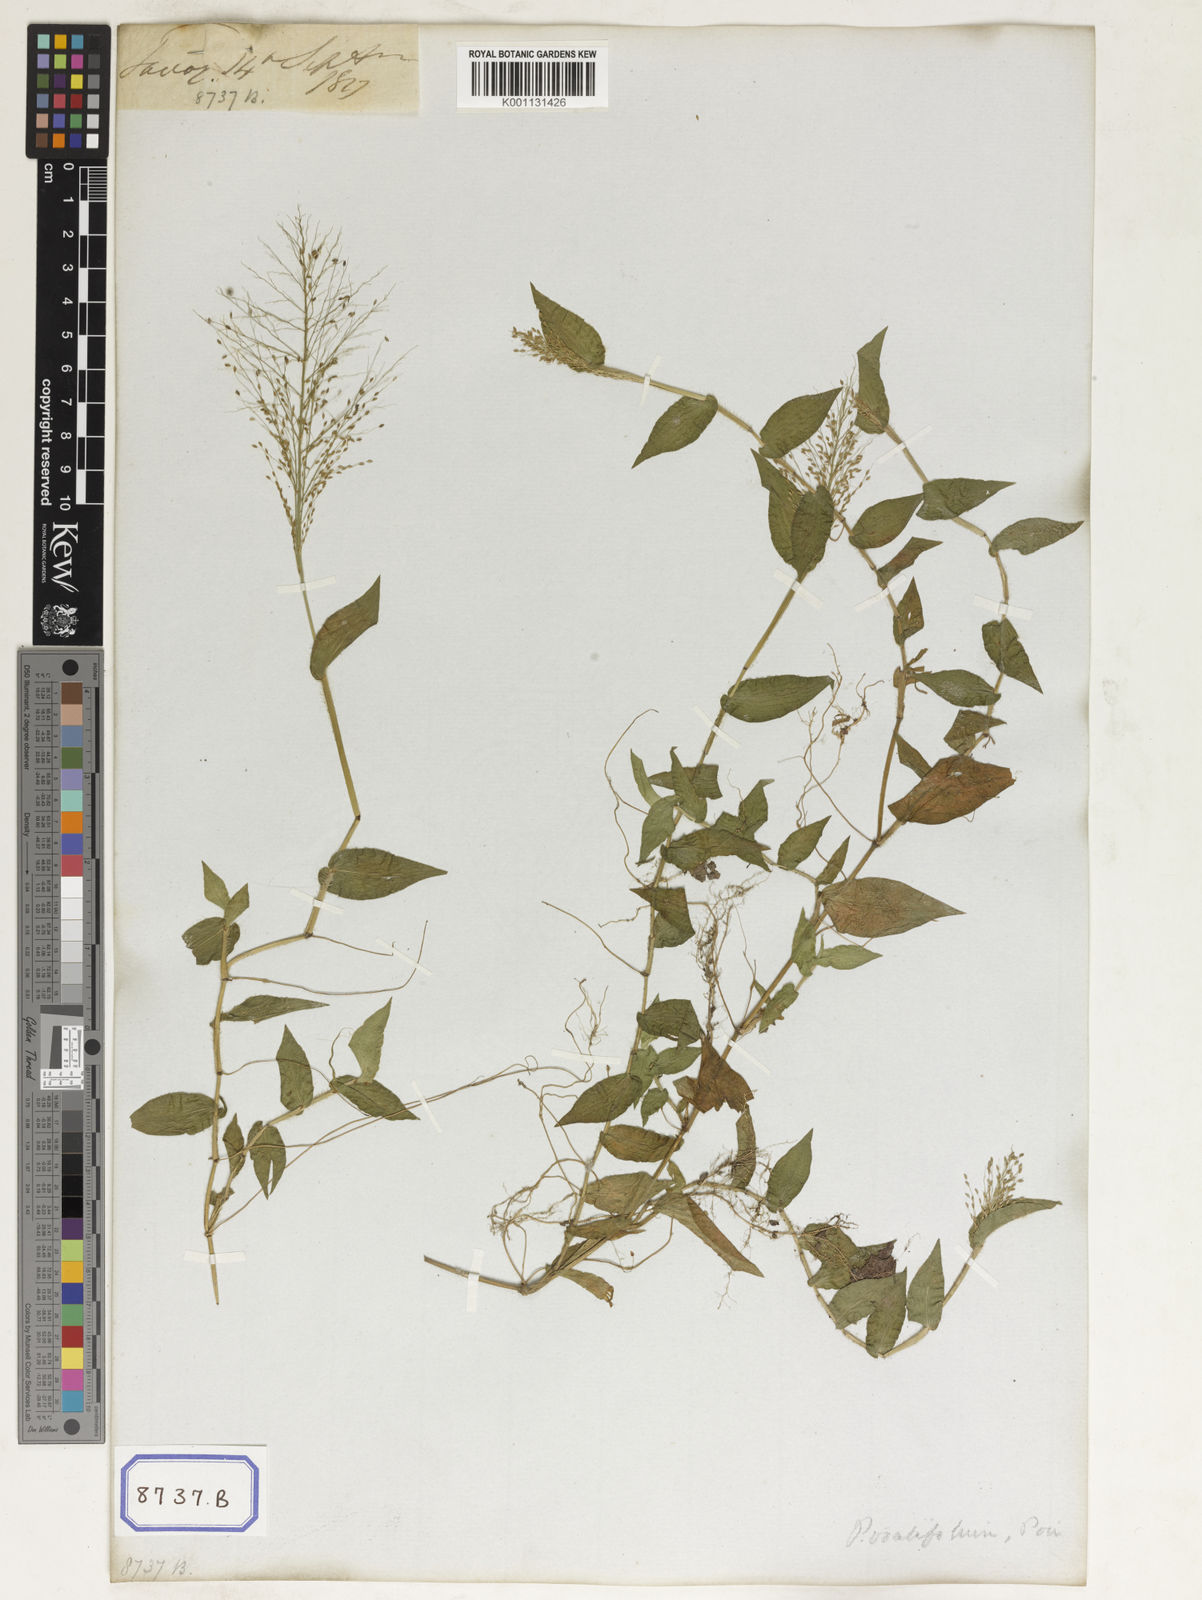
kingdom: Plantae
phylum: Tracheophyta
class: Liliopsida
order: Poales
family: Poaceae
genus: Panicum
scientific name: Panicum
